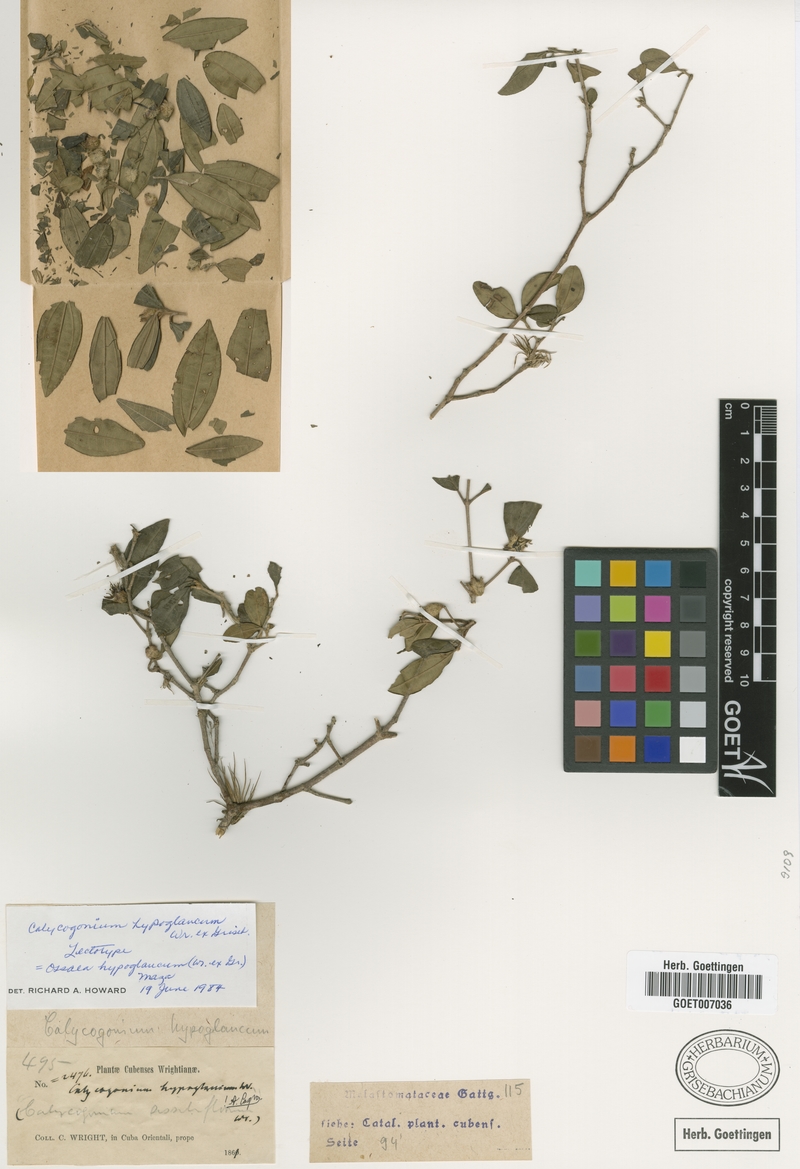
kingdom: Plantae
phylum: Tracheophyta
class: Magnoliopsida
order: Myrtales
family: Melastomataceae
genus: Miconia
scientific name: Miconia hypoglauca
